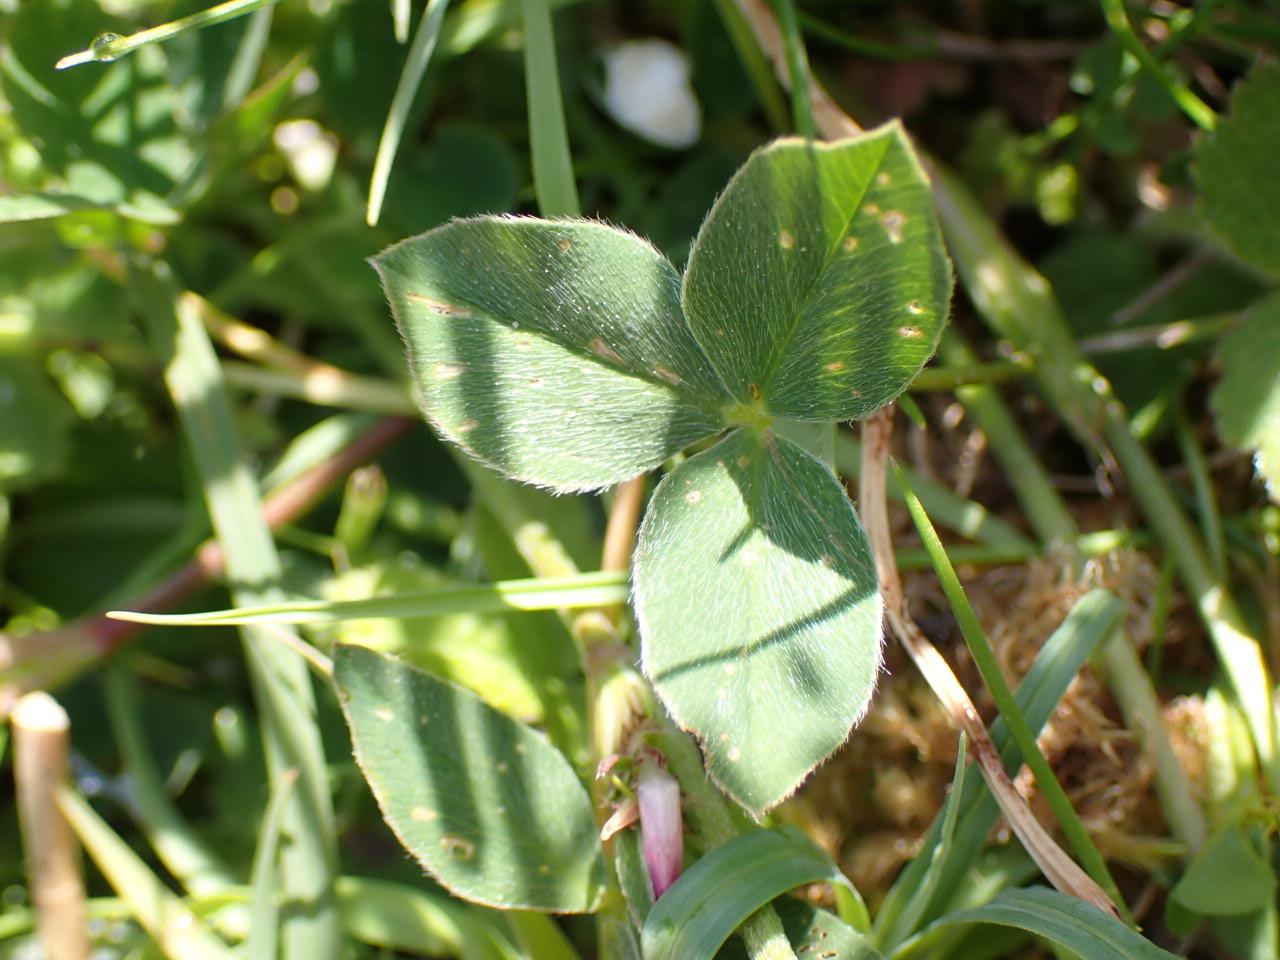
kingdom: Plantae
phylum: Tracheophyta
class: Magnoliopsida
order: Fabales
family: Fabaceae
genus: Trifolium
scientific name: Trifolium pratense
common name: Rød-kløver
